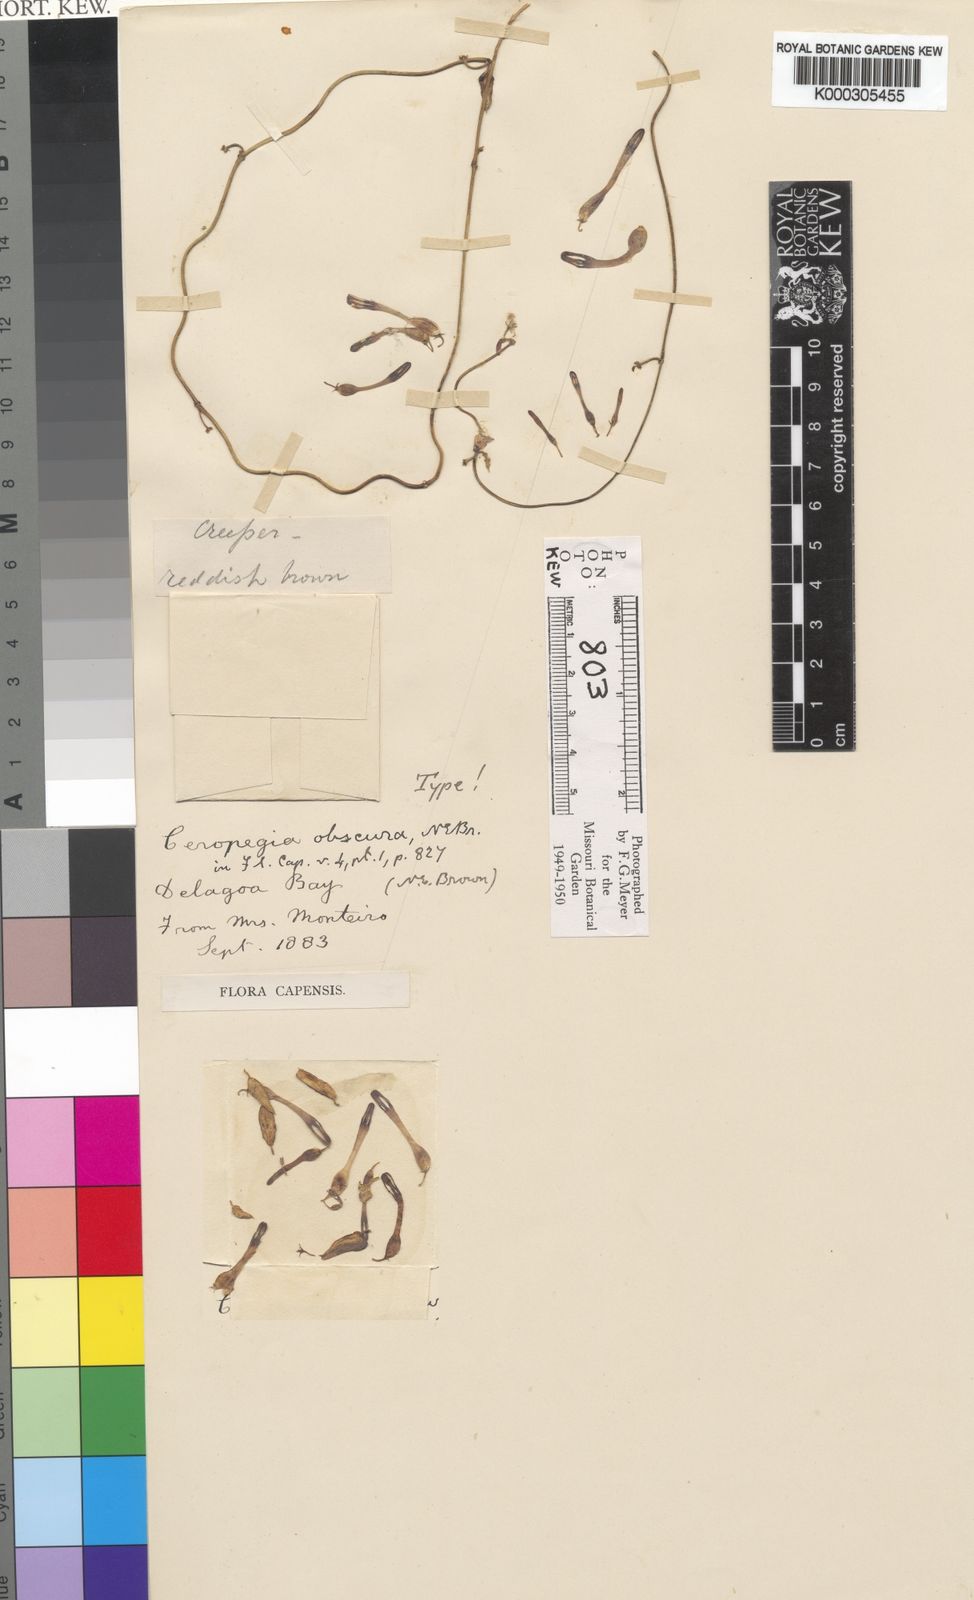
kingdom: Plantae
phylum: Tracheophyta
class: Magnoliopsida
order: Gentianales
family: Apocynaceae
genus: Ceropegia
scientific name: Ceropegia pachystelma
